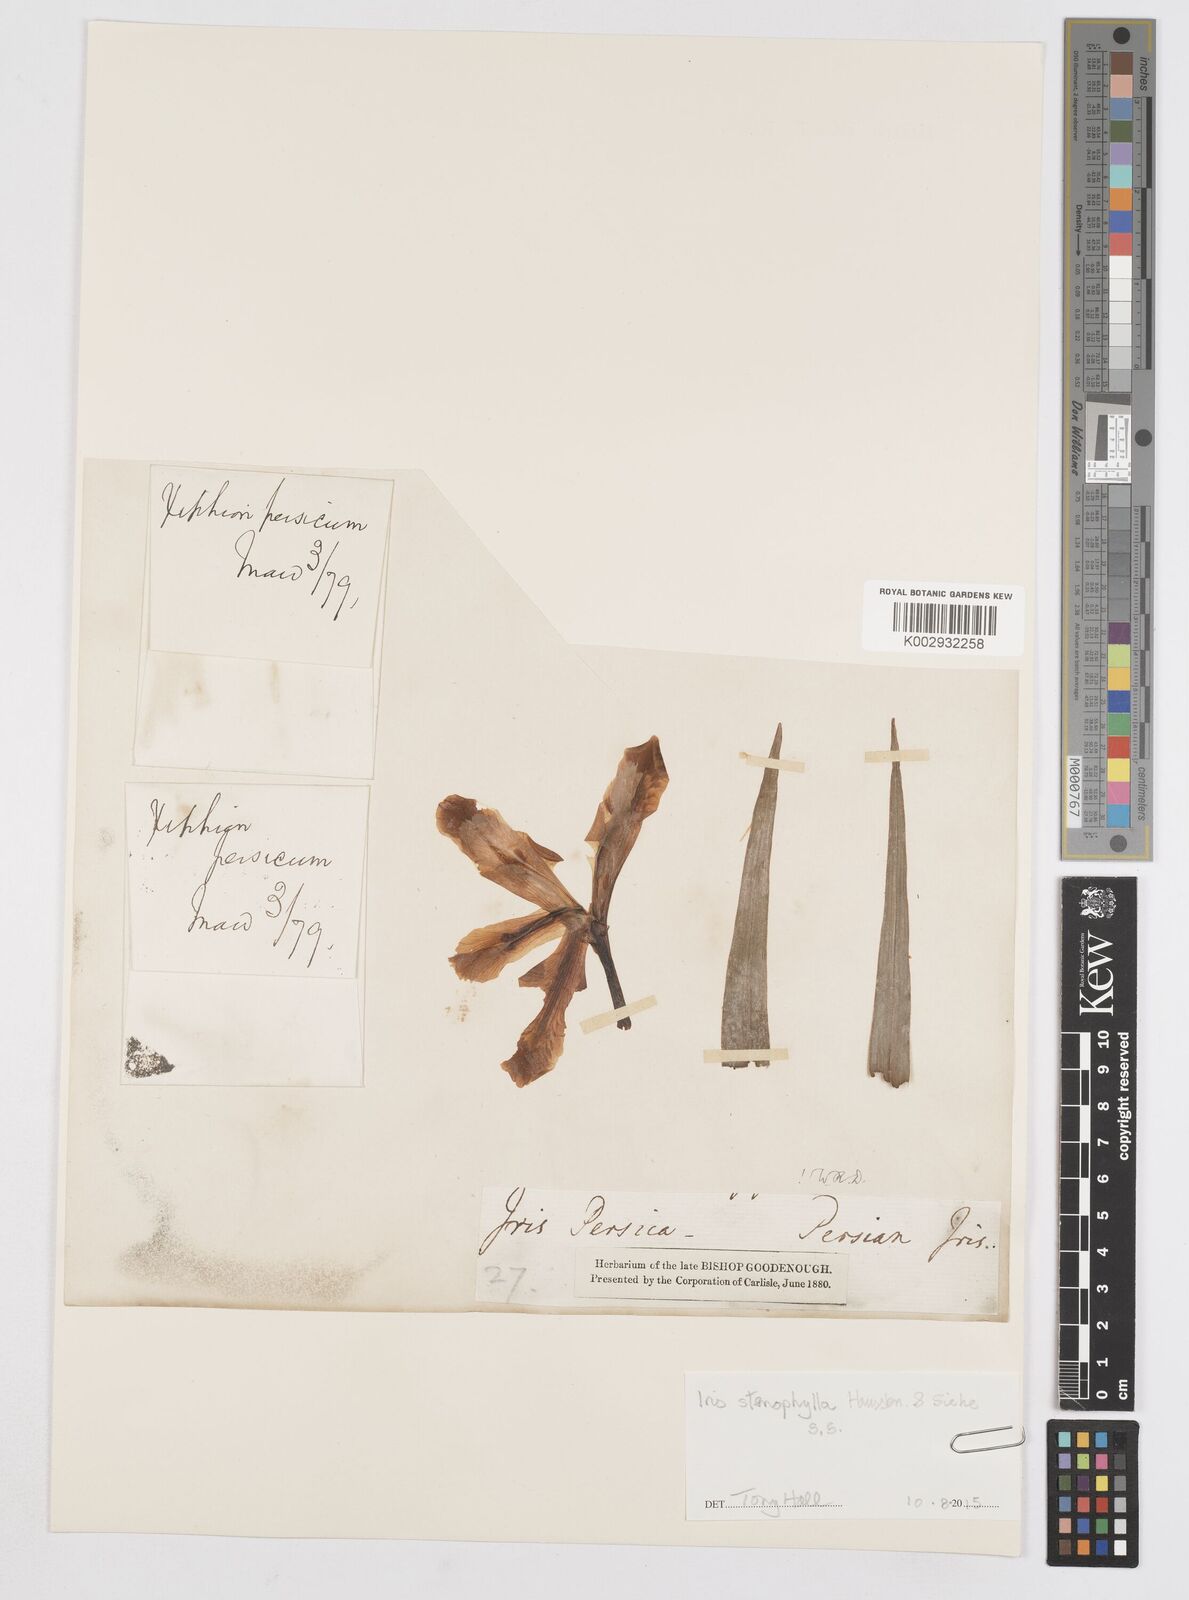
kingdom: Plantae
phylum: Tracheophyta
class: Liliopsida
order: Asparagales
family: Iridaceae
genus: Iris
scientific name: Iris
